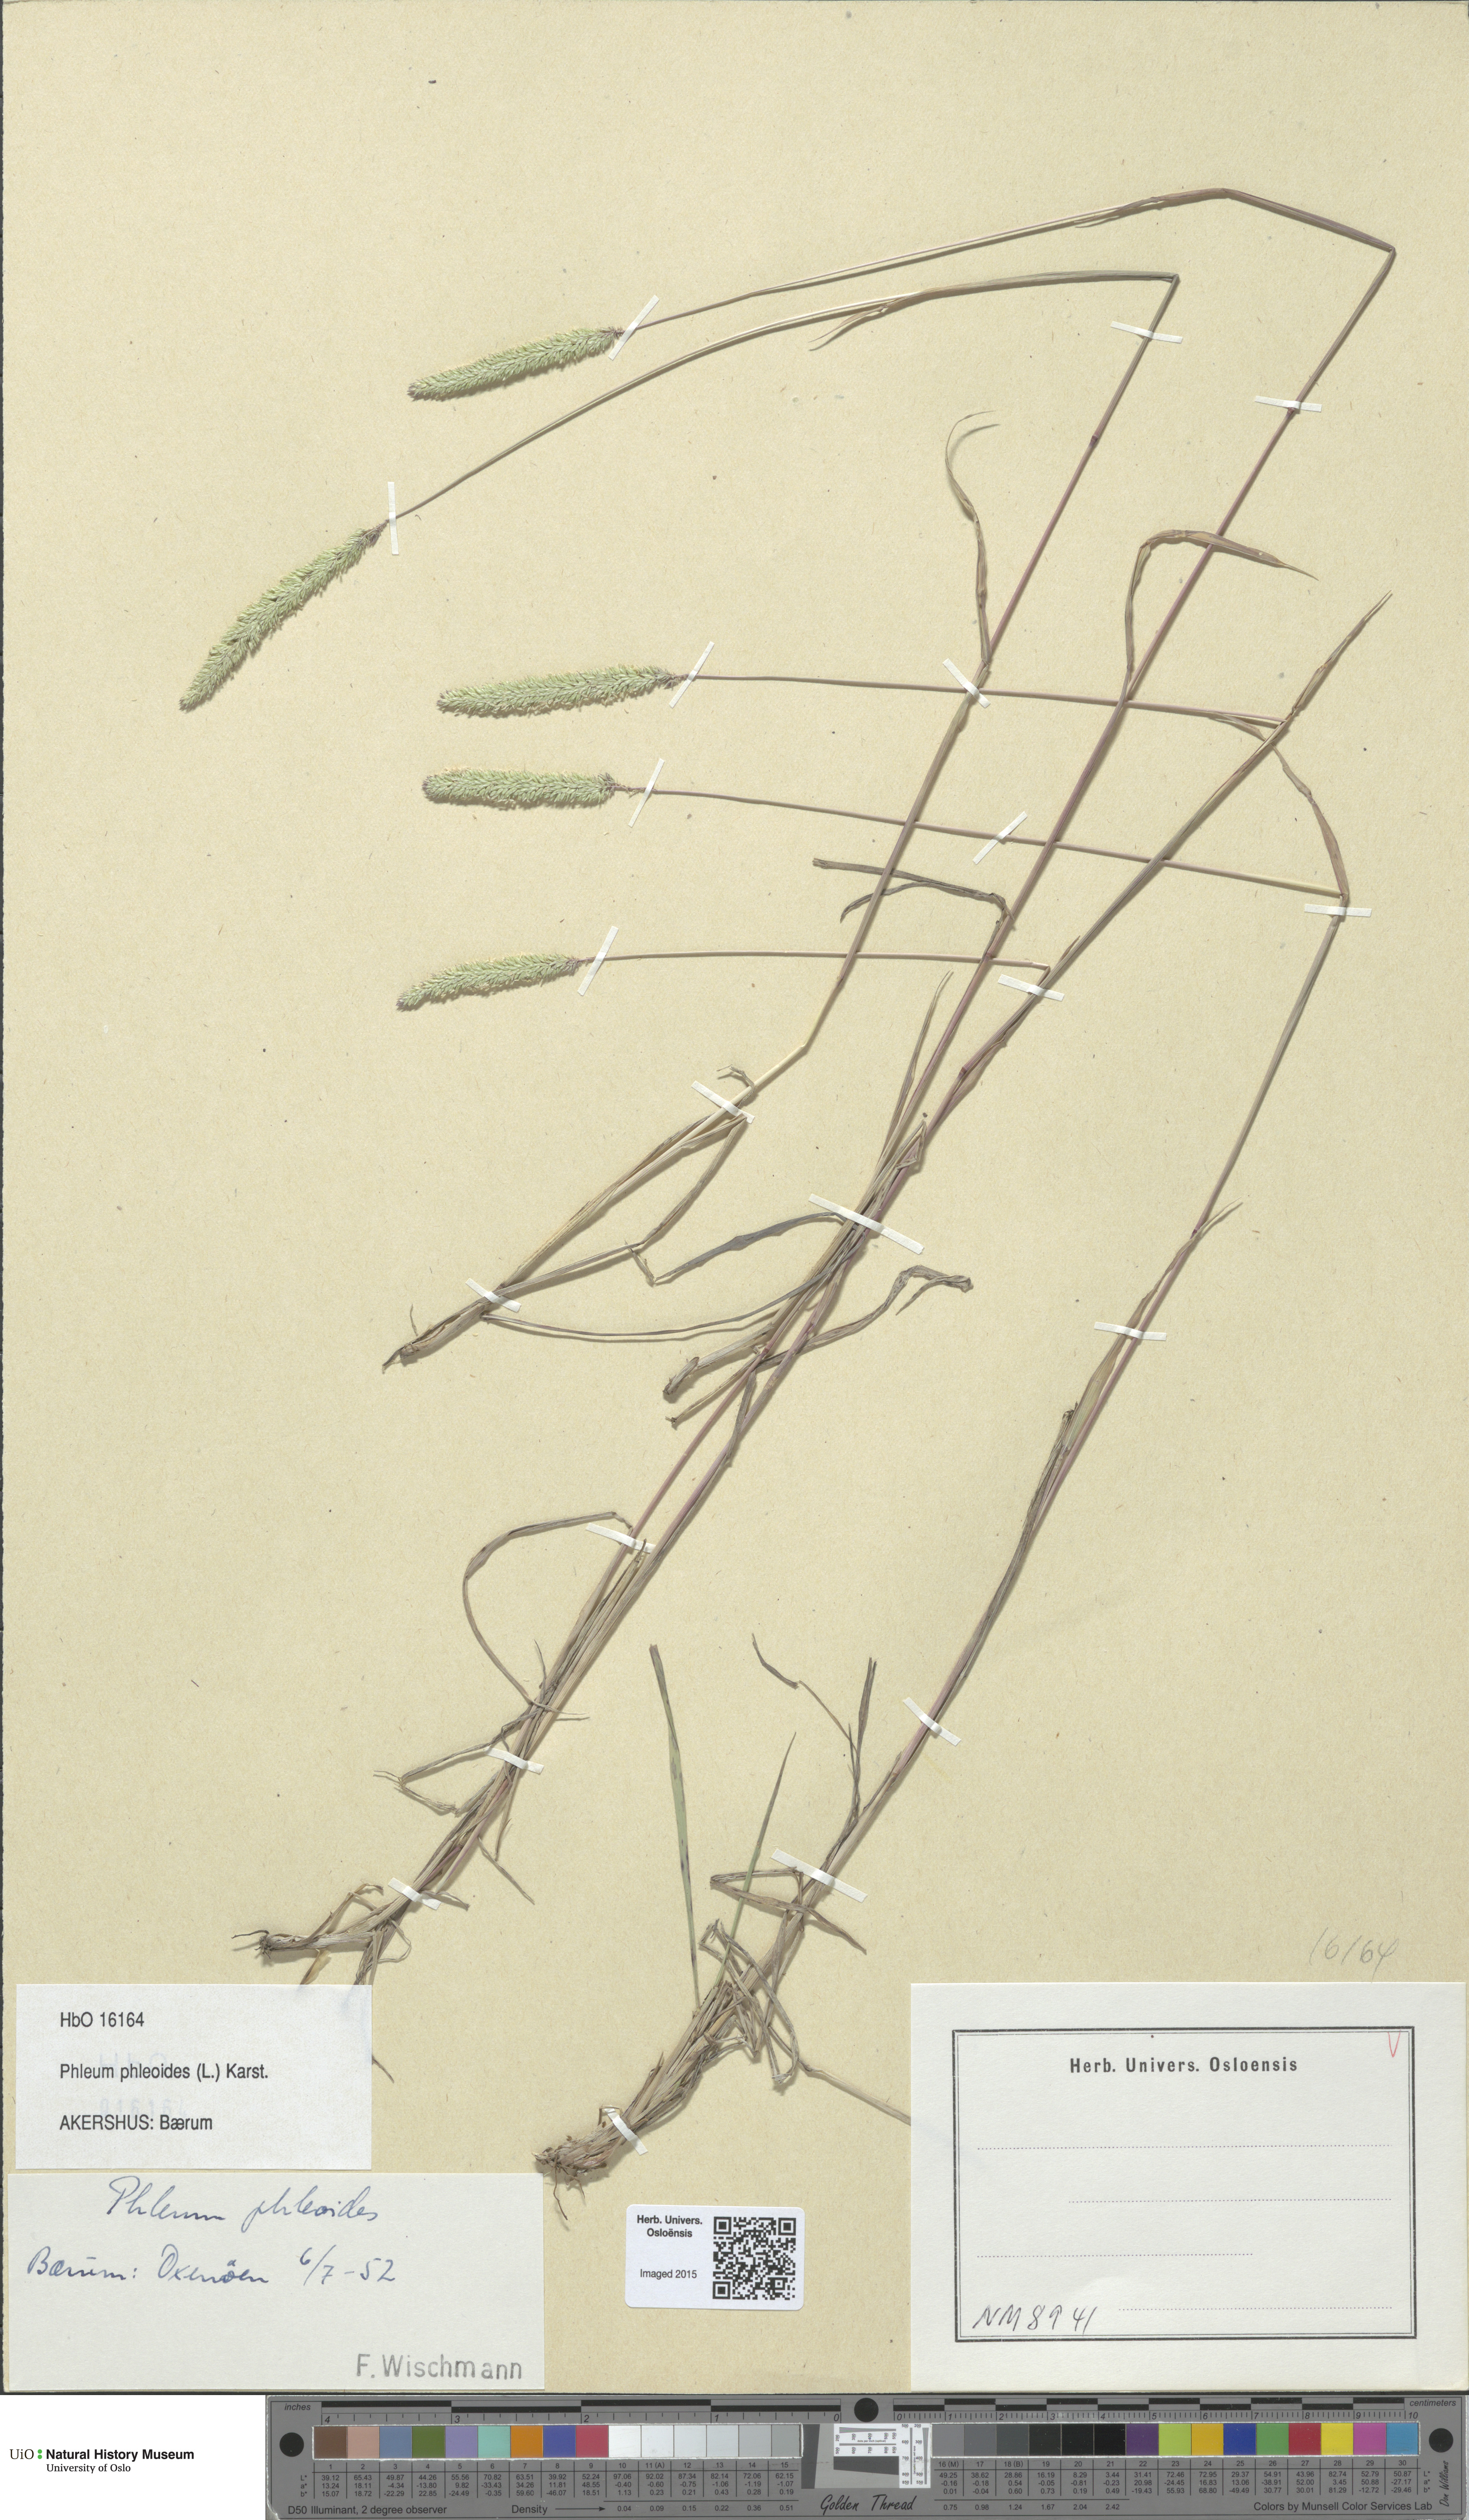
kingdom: Plantae
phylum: Tracheophyta
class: Liliopsida
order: Poales
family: Poaceae
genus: Phleum
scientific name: Phleum phleoides
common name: Purple-stem cat's-tail
